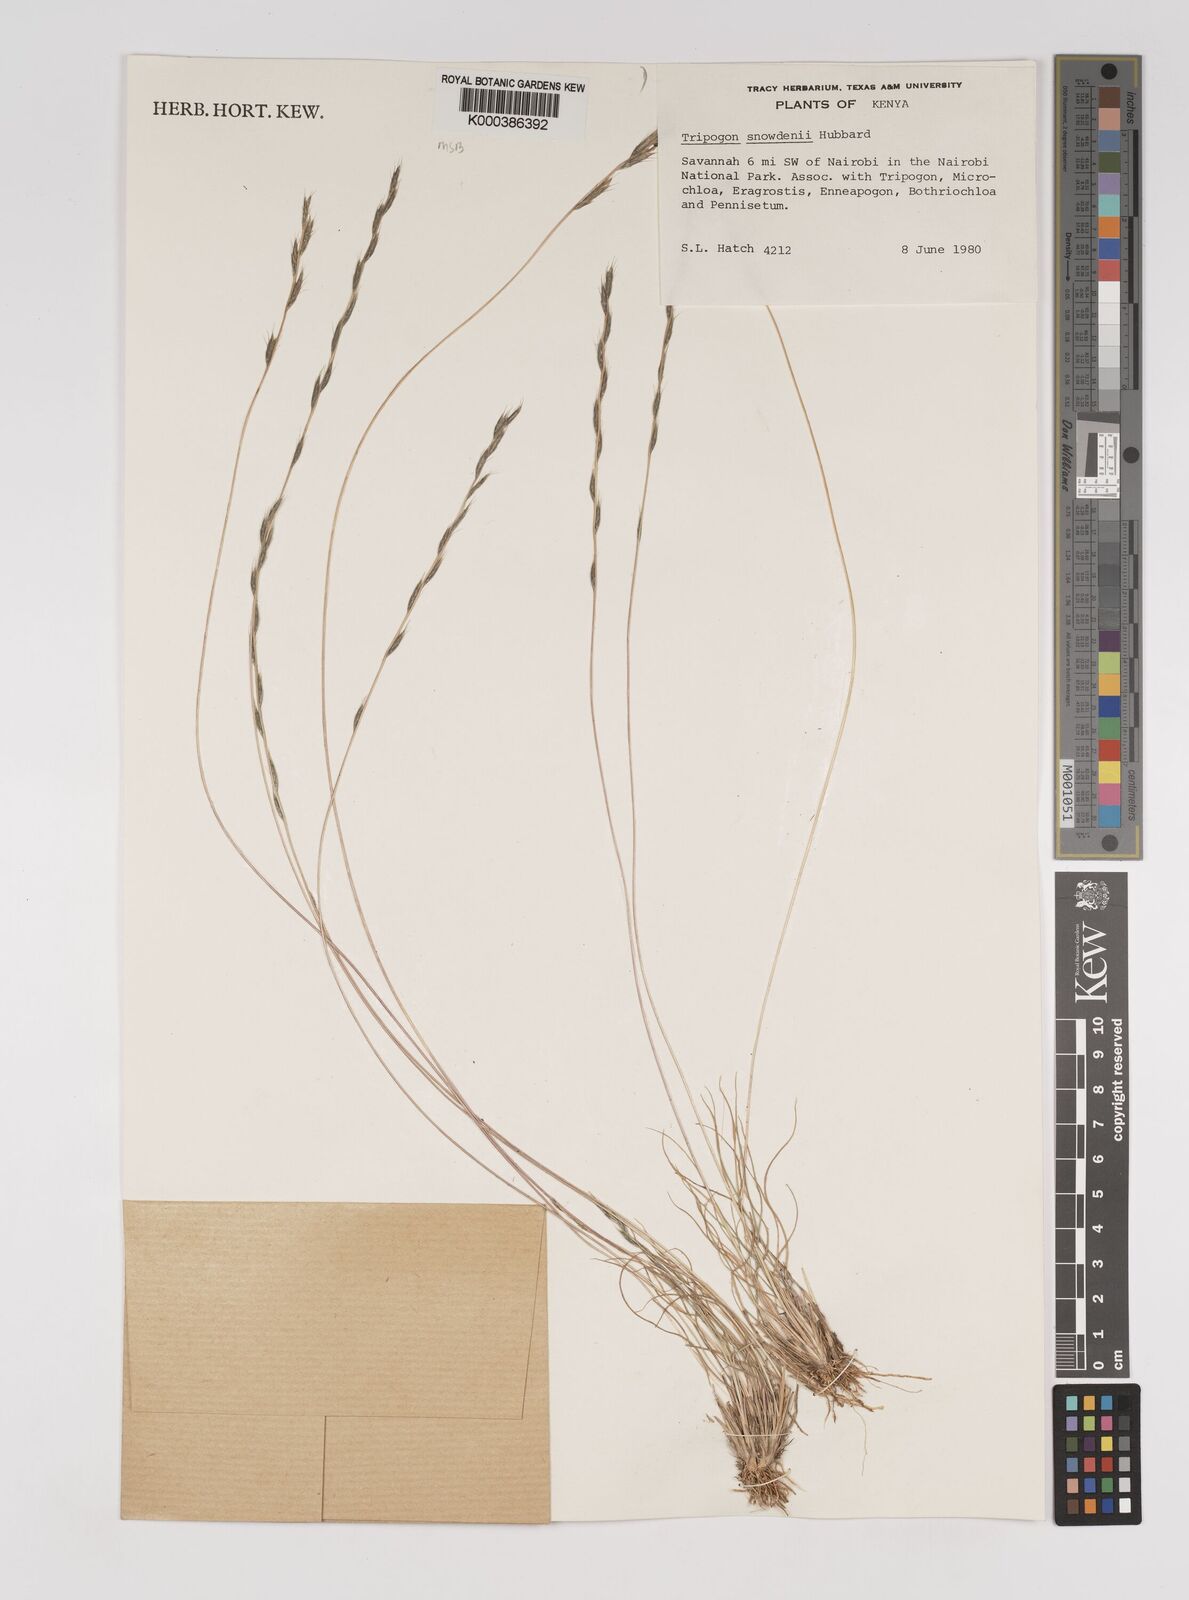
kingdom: Plantae
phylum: Tracheophyta
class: Liliopsida
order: Poales
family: Poaceae
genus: Tripogon
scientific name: Tripogon curvatus
